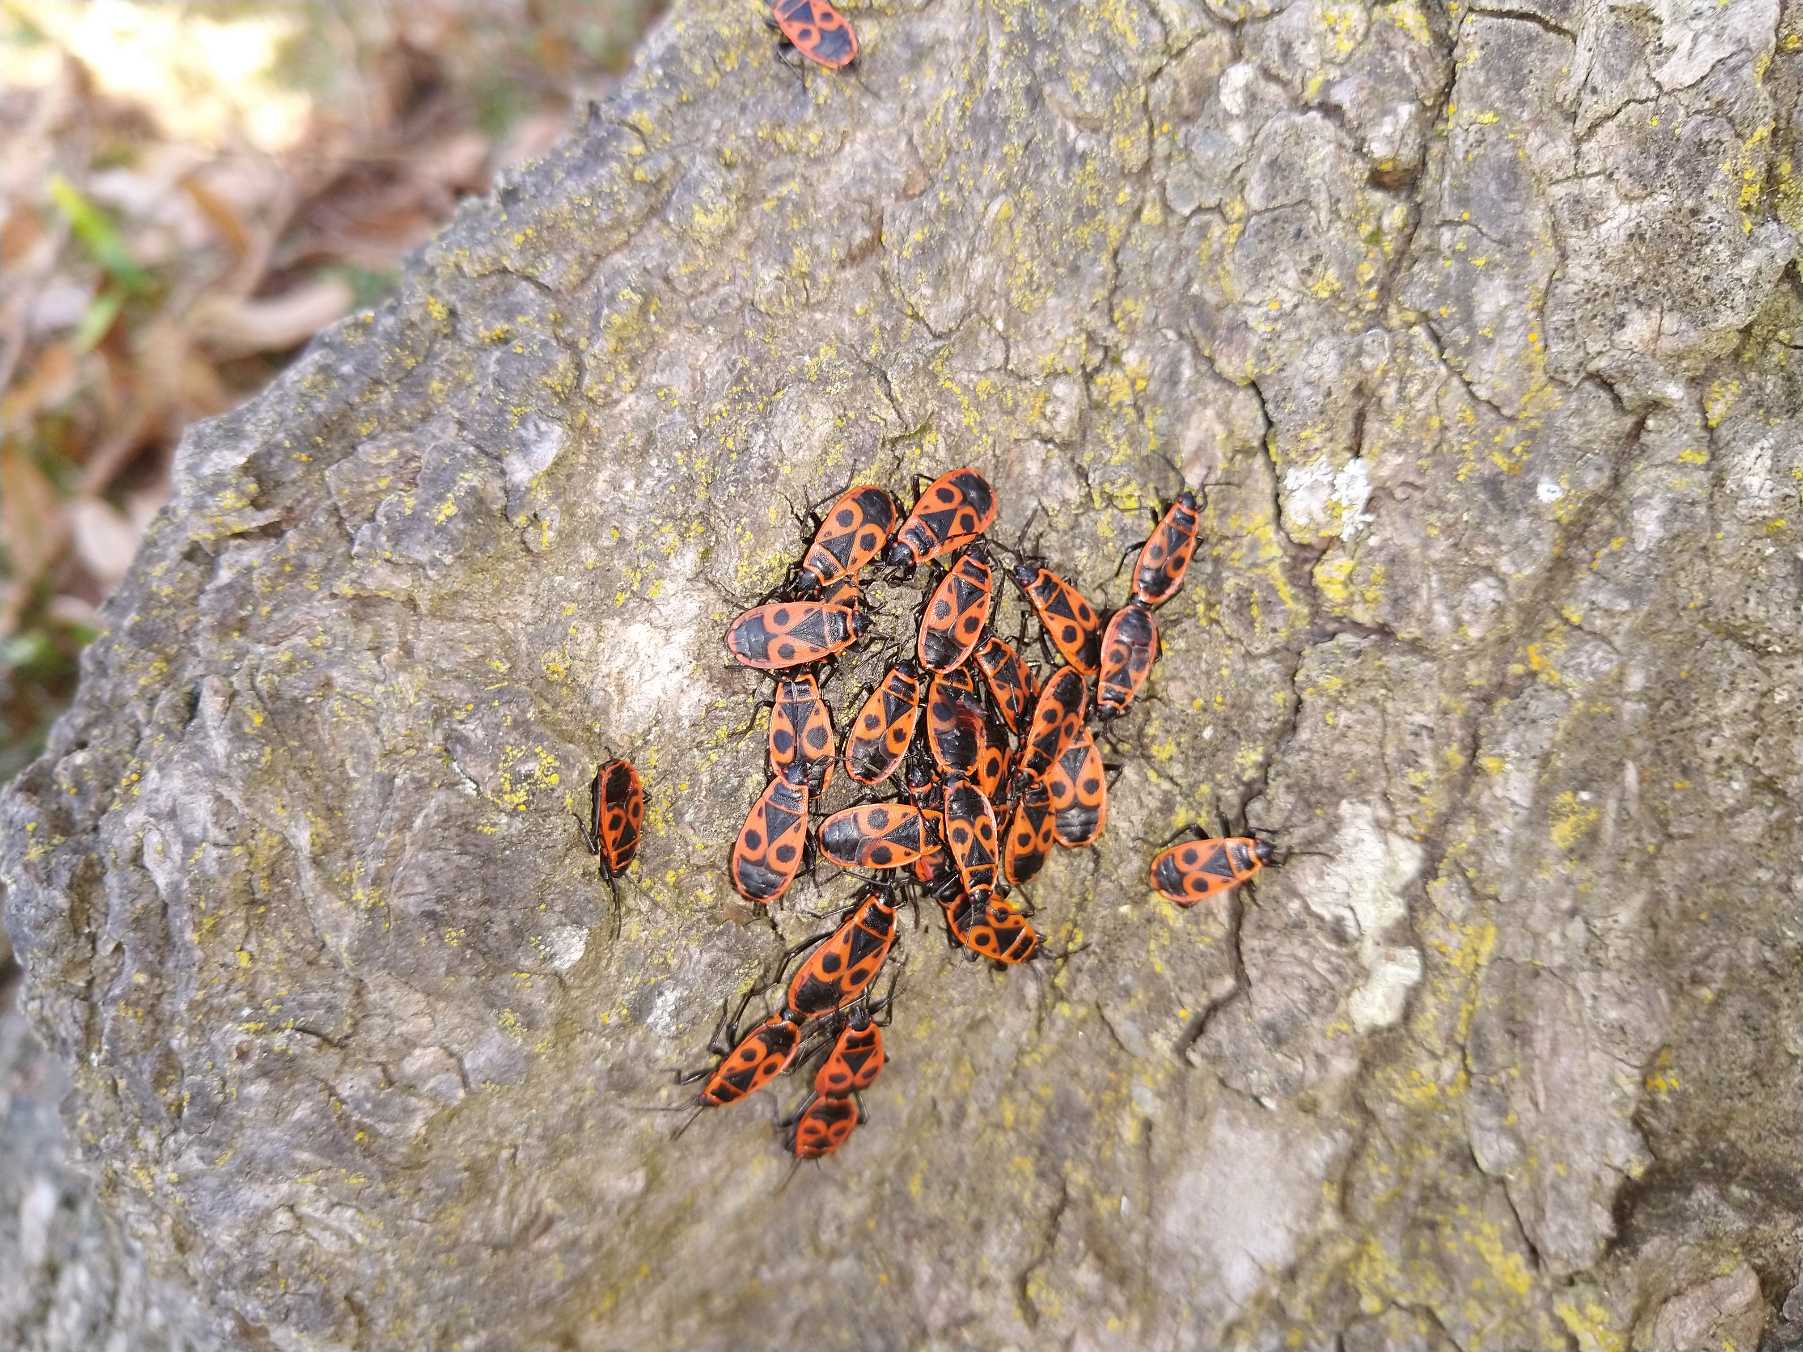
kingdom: Animalia
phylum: Arthropoda
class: Insecta
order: Hemiptera
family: Pyrrhocoridae
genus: Pyrrhocoris
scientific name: Pyrrhocoris apterus
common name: Ildtæge
